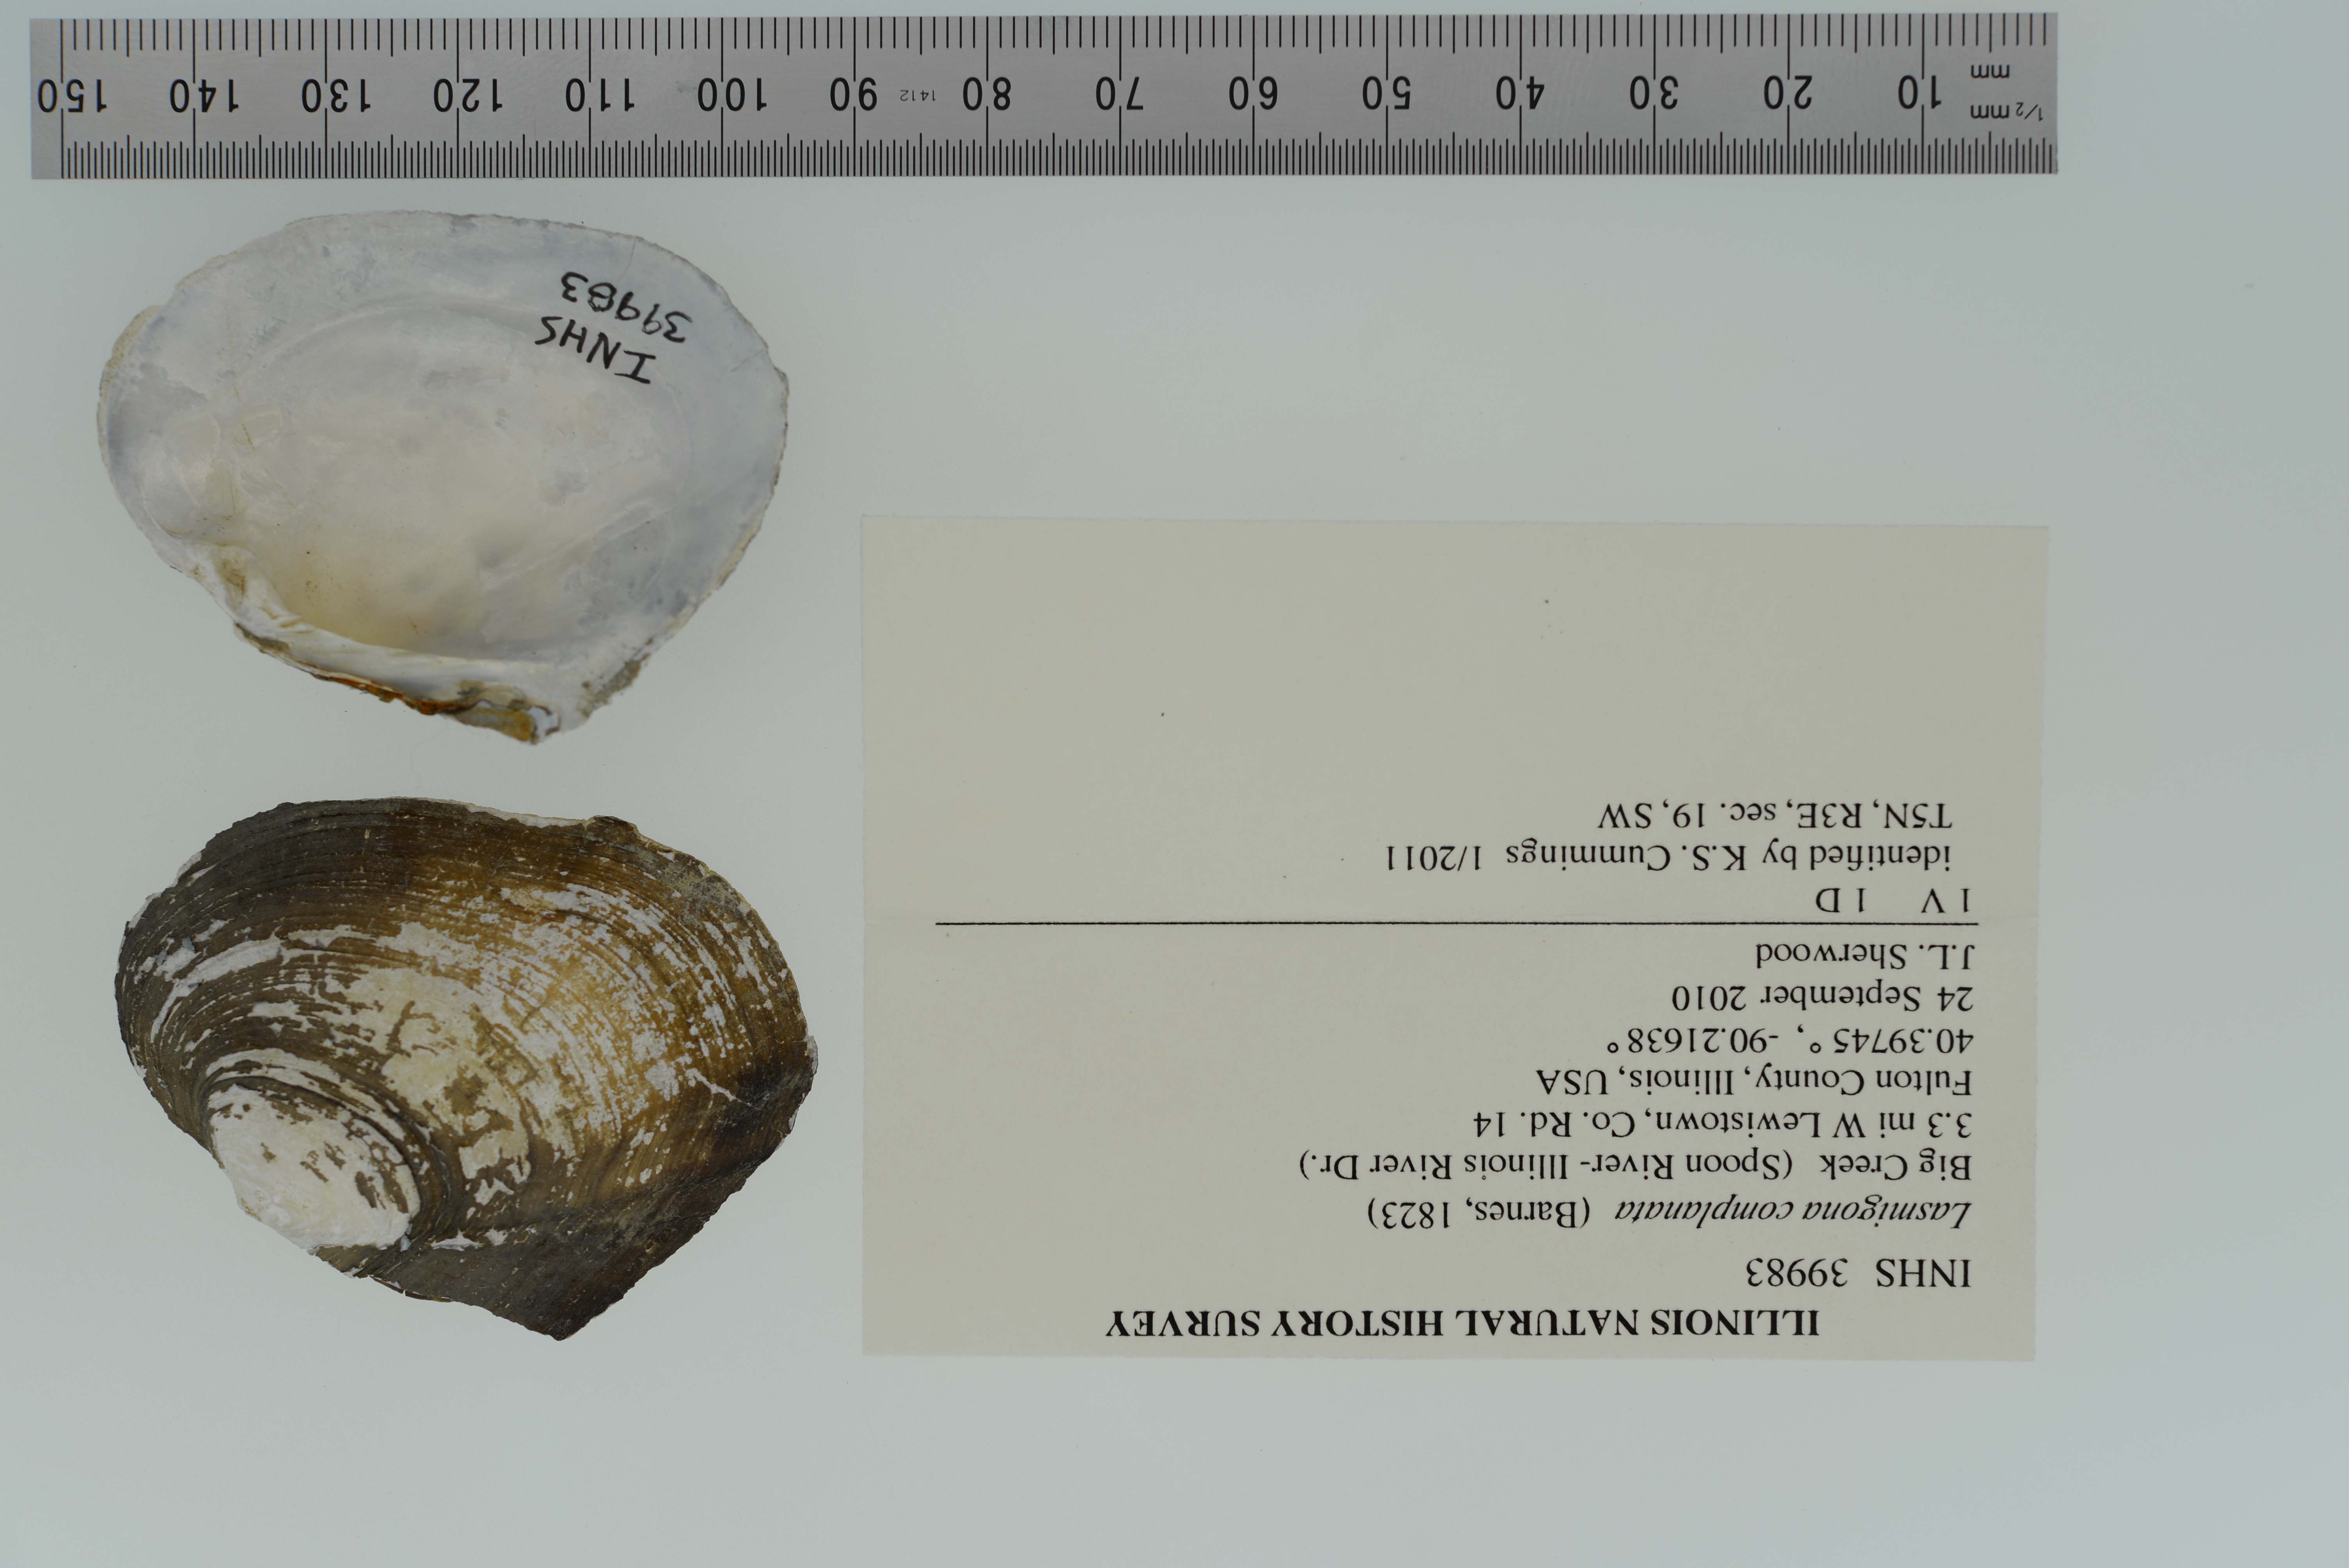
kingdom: Animalia
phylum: Mollusca
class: Bivalvia
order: Unionida
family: Unionidae
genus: Lasmigona
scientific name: Lasmigona complanata
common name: White heelsplitter
